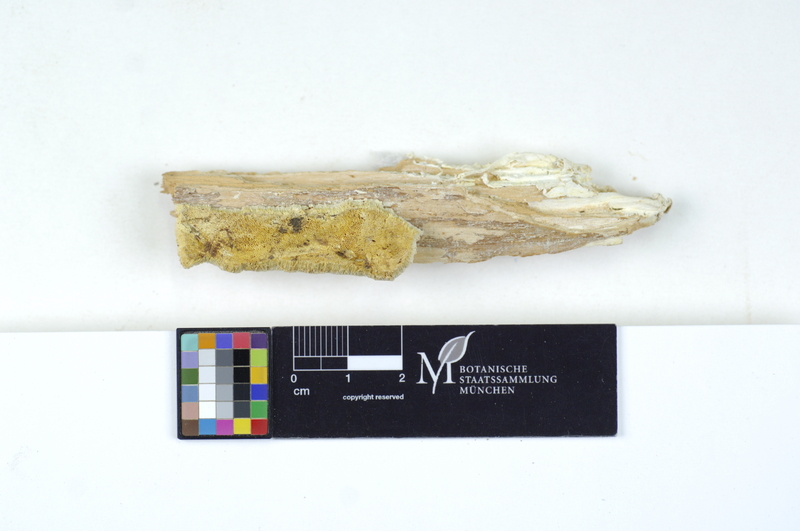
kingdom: Plantae
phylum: Tracheophyta
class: Pinopsida
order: Pinales
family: Pinaceae
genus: Larix
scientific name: Larix
